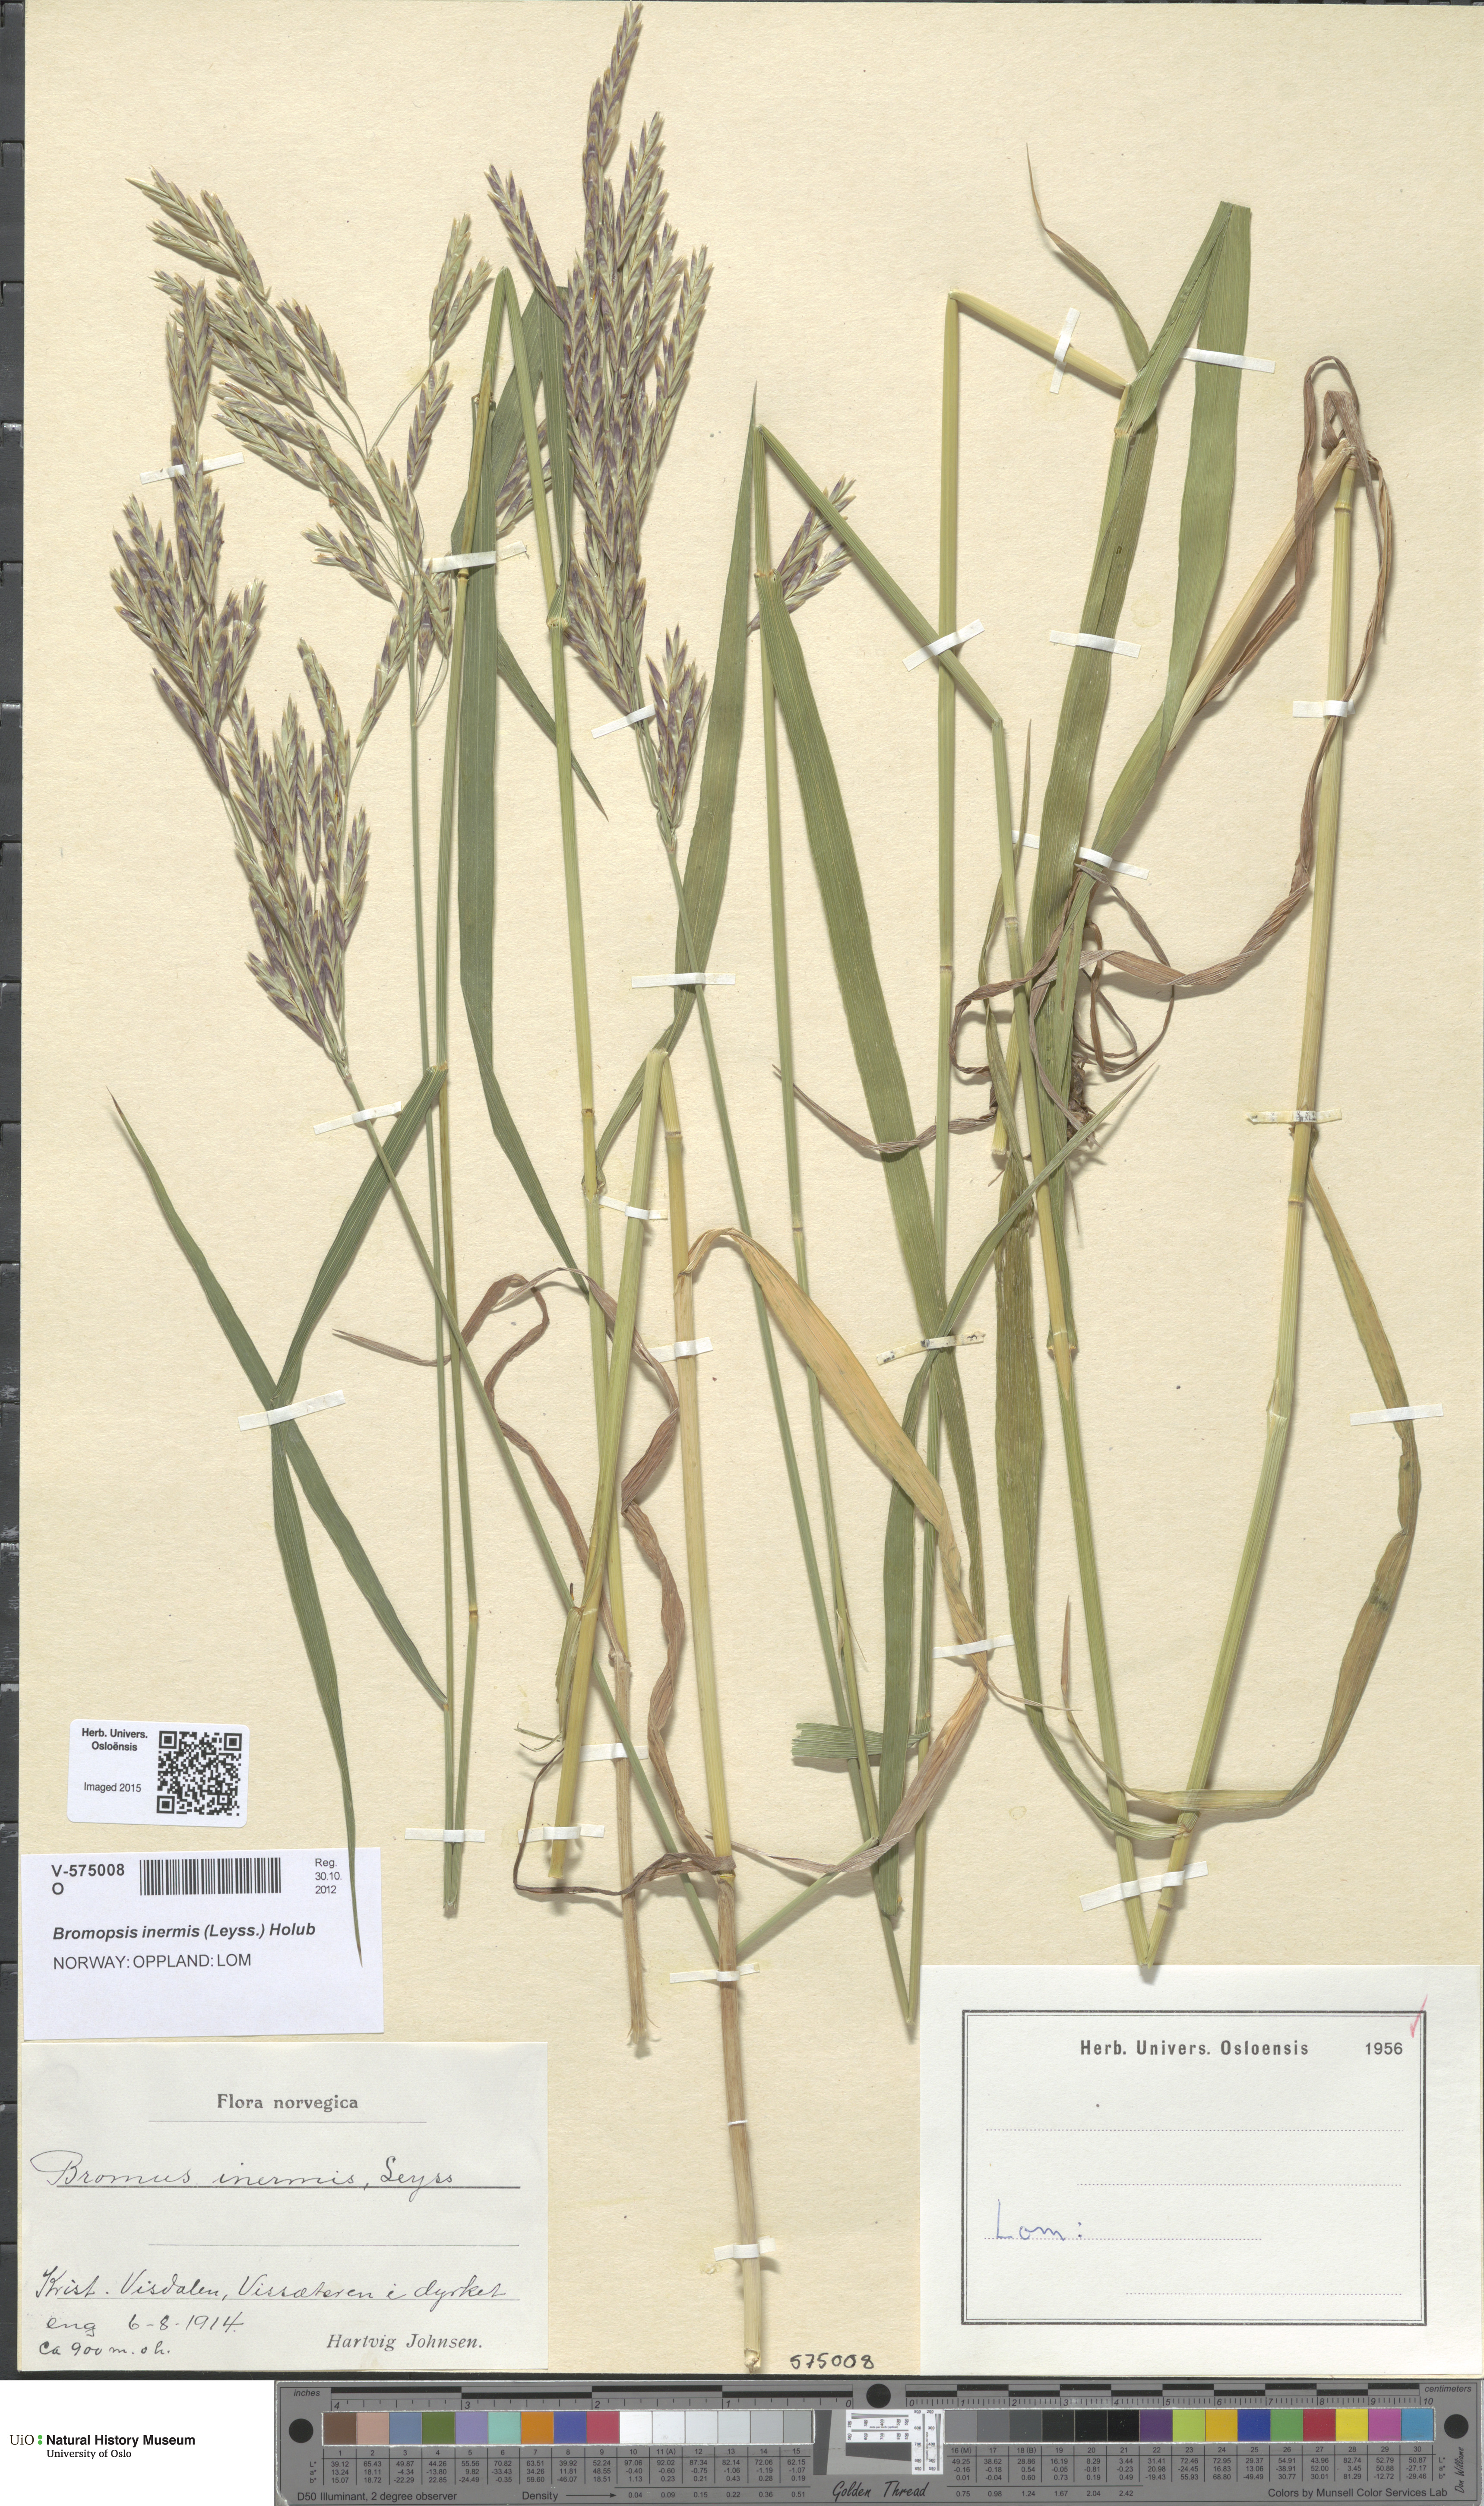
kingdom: Plantae
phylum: Tracheophyta
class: Liliopsida
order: Poales
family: Poaceae
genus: Bromus
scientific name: Bromus inermis
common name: Smooth brome
